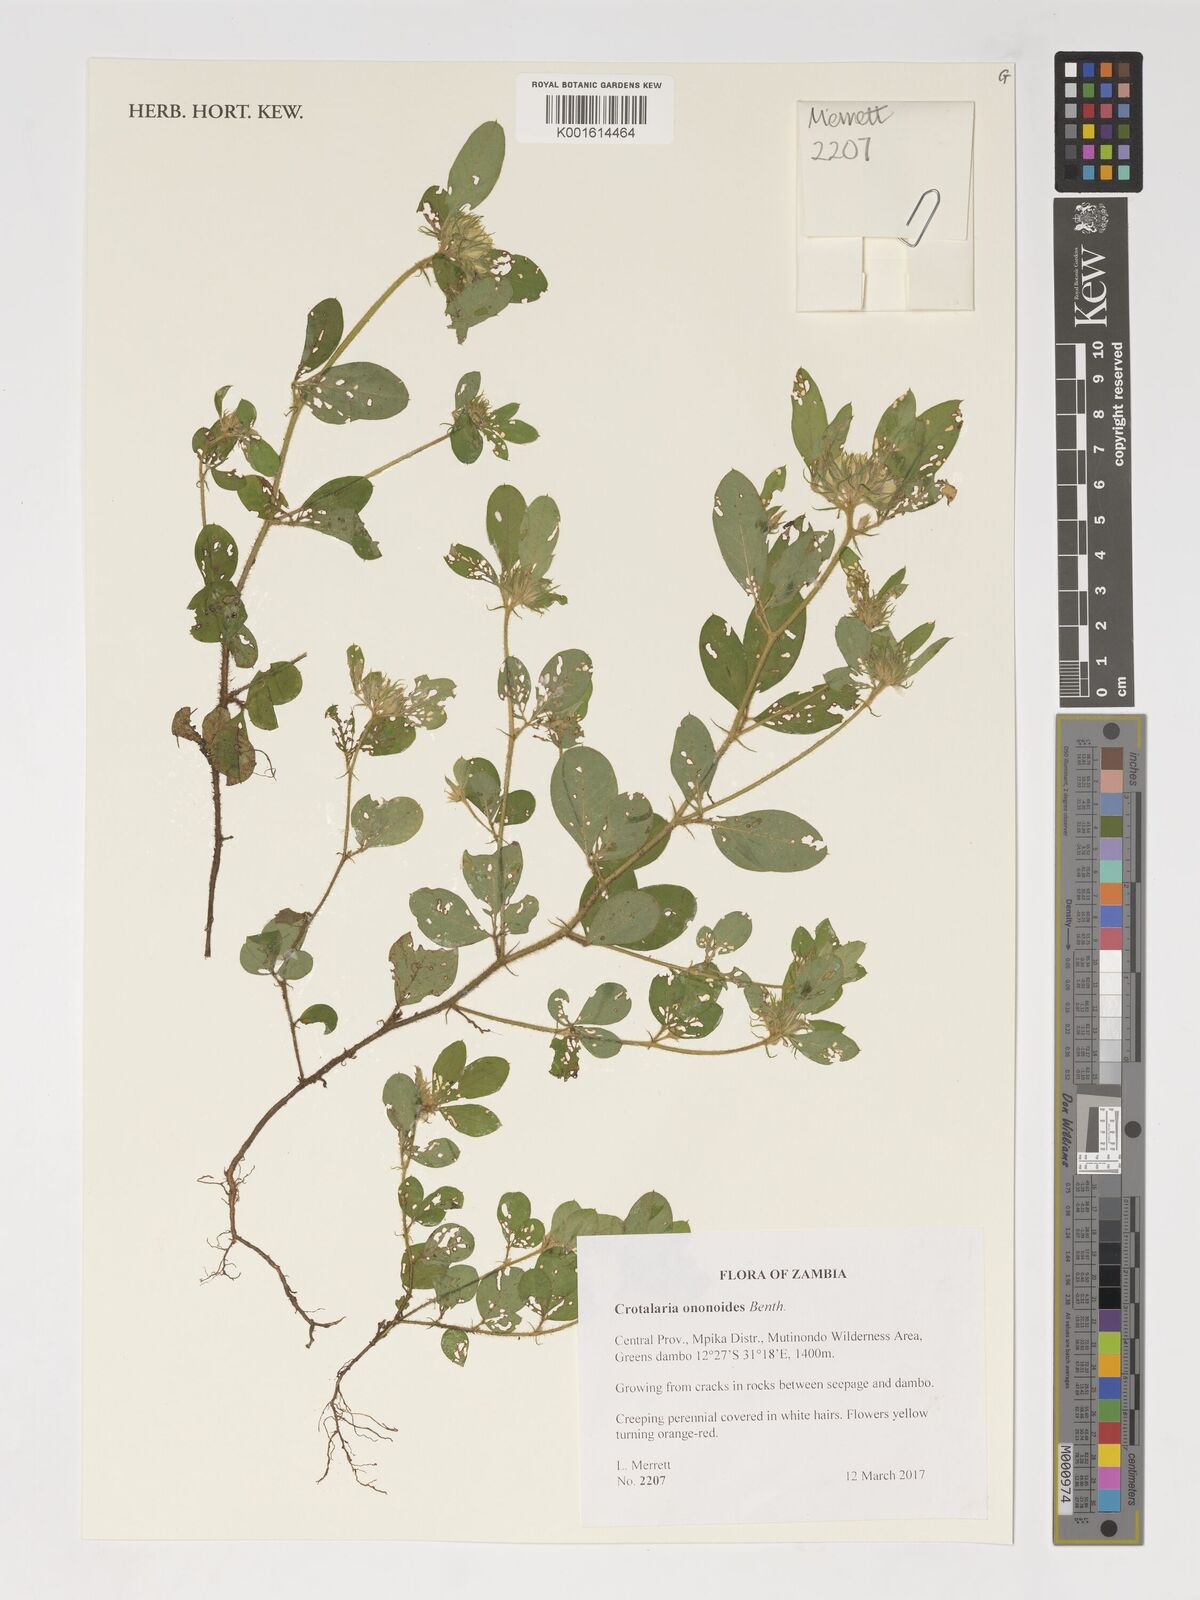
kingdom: Plantae
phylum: Tracheophyta
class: Magnoliopsida
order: Fabales
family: Fabaceae
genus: Crotalaria
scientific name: Crotalaria ononoides
